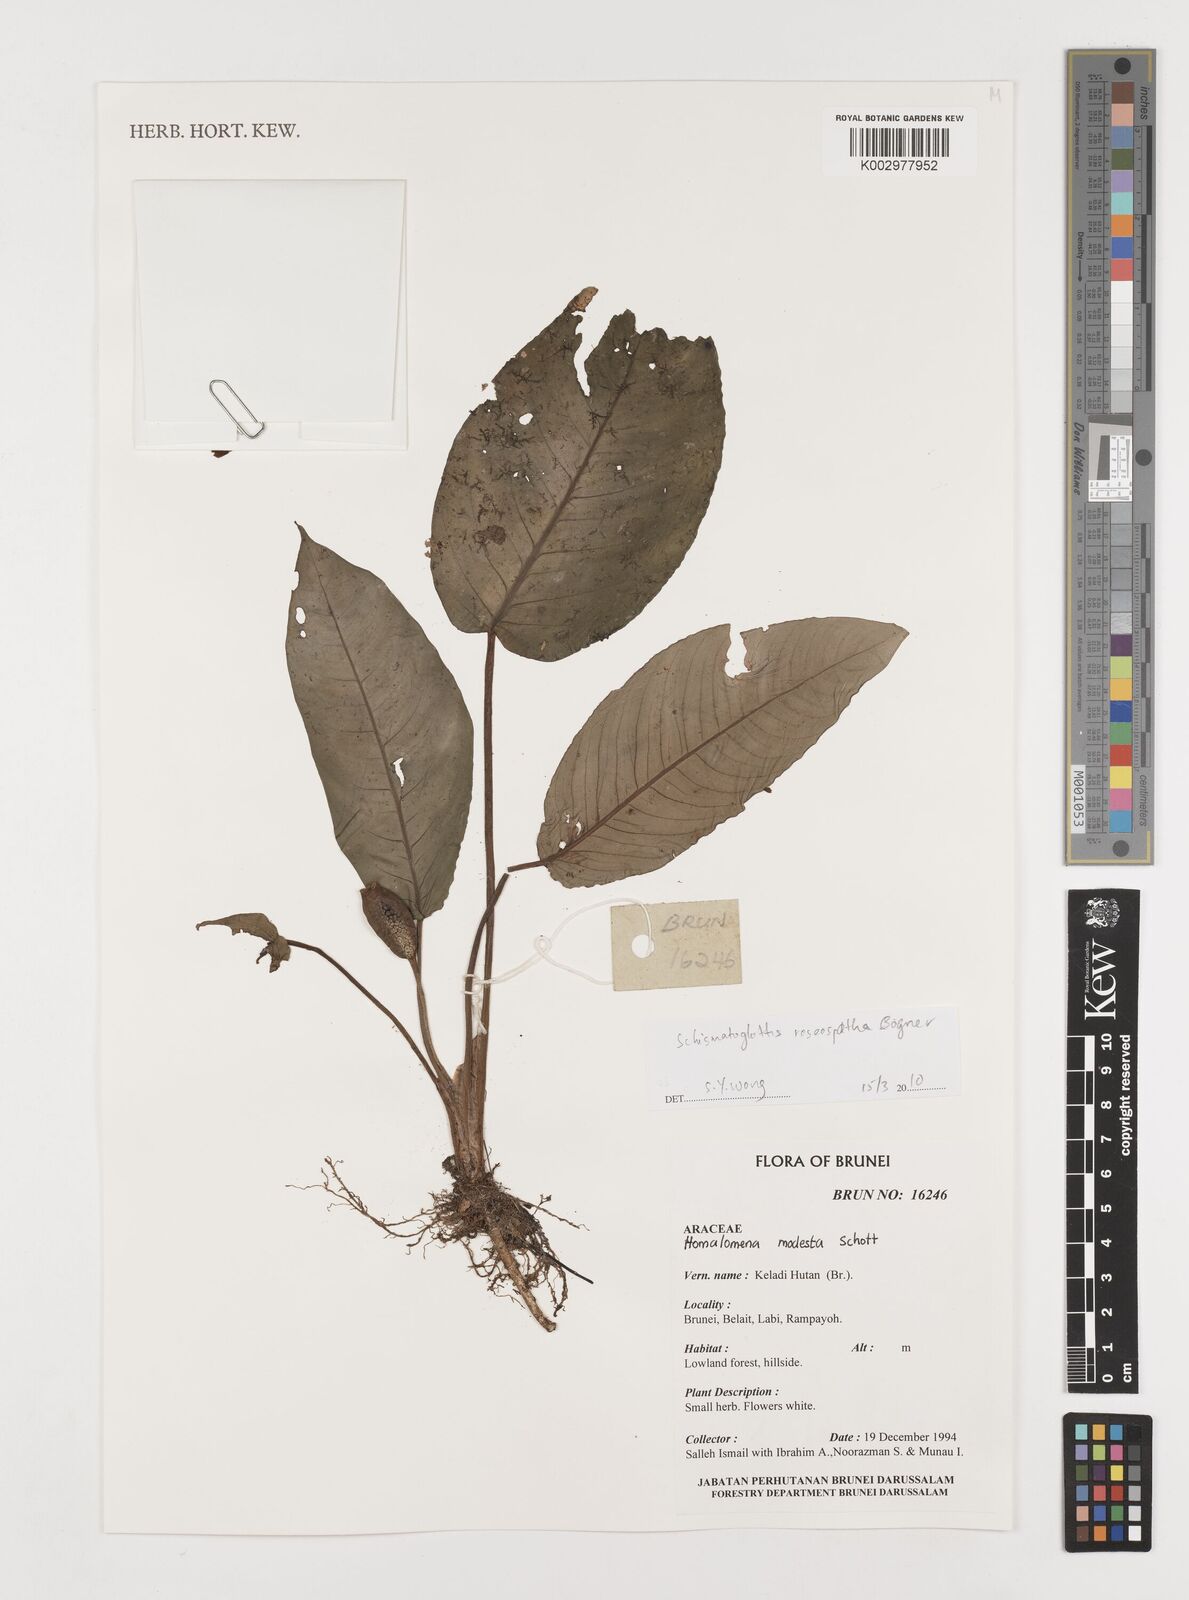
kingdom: Plantae
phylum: Tracheophyta
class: Liliopsida
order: Alismatales
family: Araceae
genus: Schismatoglottis
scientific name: Schismatoglottis roseospatha
